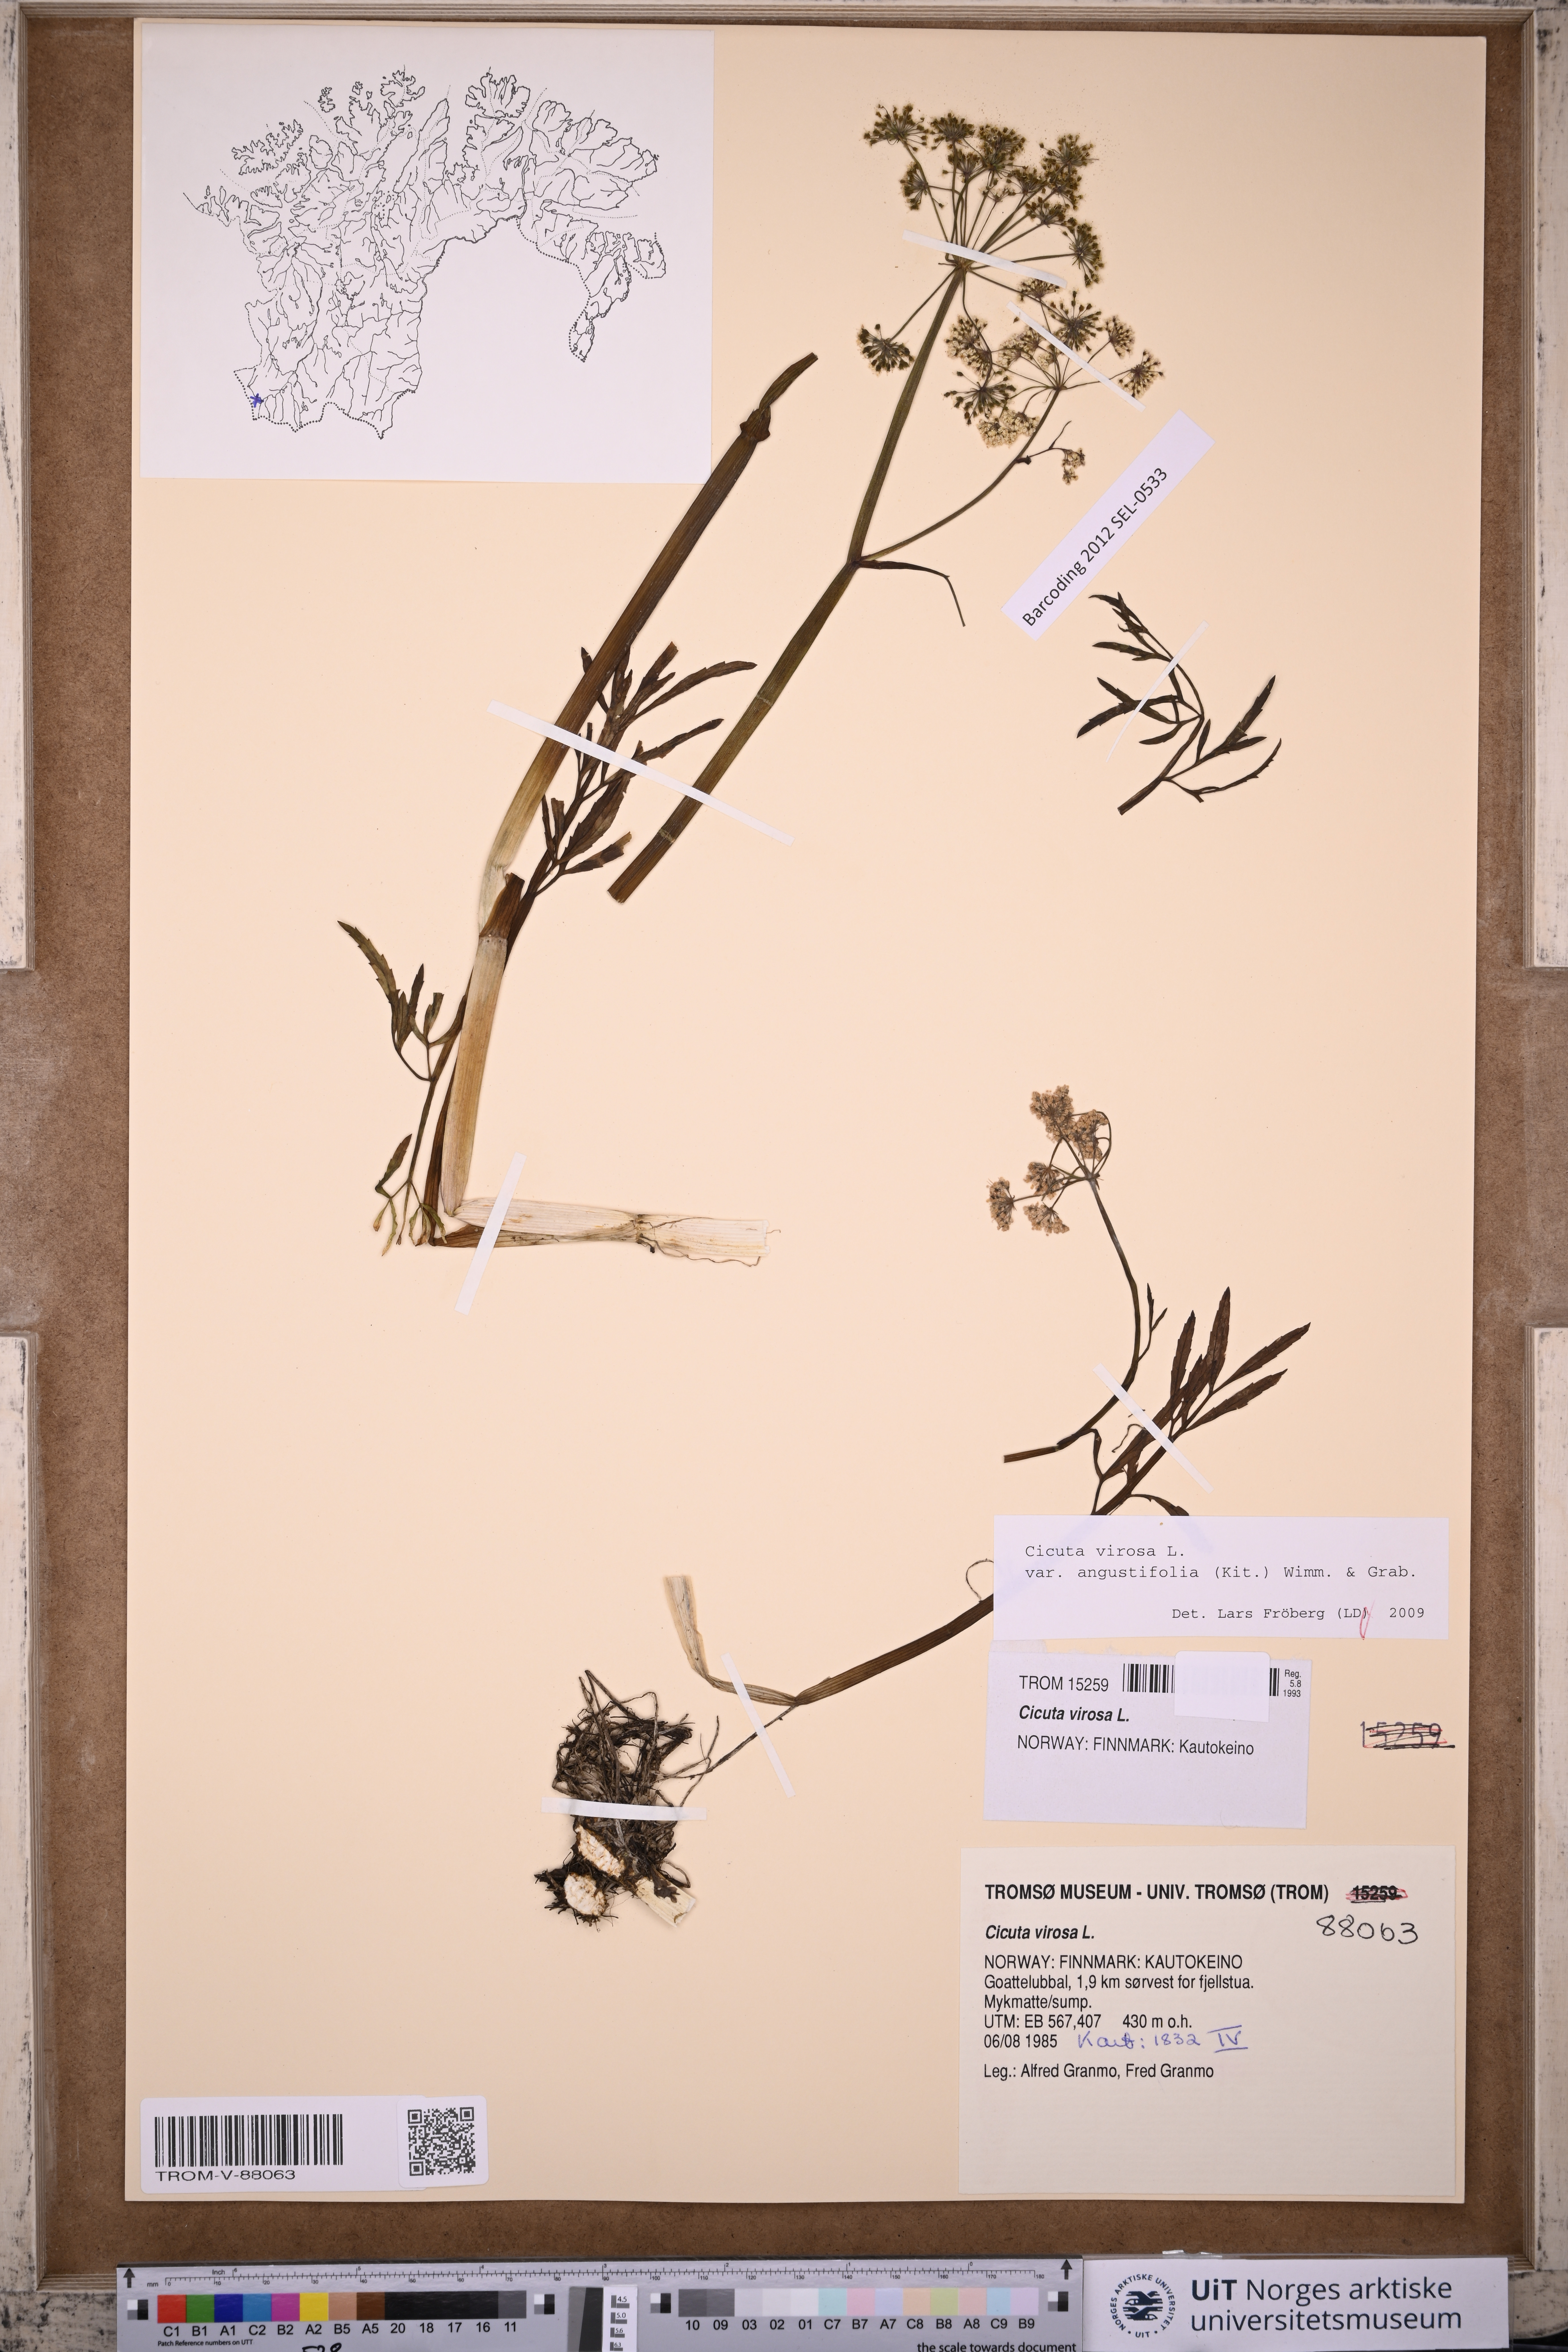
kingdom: Plantae
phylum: Tracheophyta
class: Magnoliopsida
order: Apiales
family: Apiaceae
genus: Cicuta
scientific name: Cicuta virosa
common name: Cowbane
